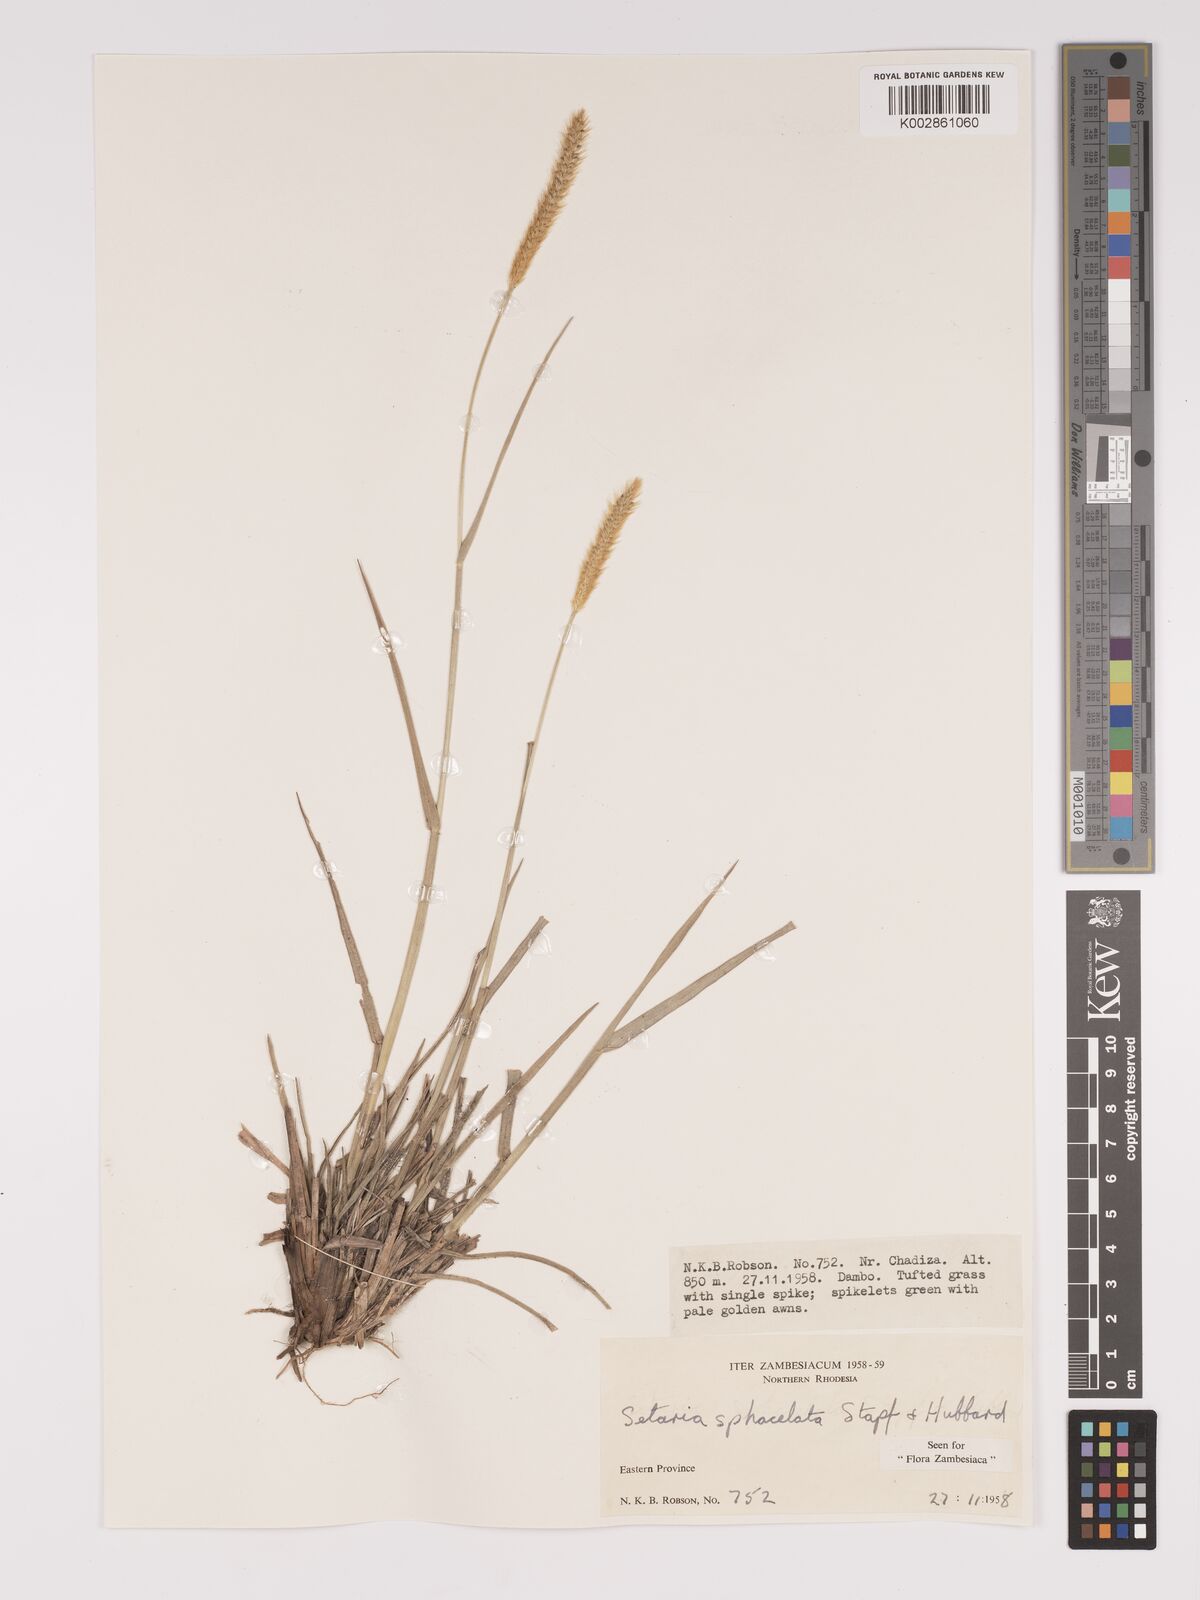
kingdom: Plantae
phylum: Tracheophyta
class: Liliopsida
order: Poales
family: Poaceae
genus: Setaria
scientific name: Setaria sphacelata
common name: African bristlegrass
